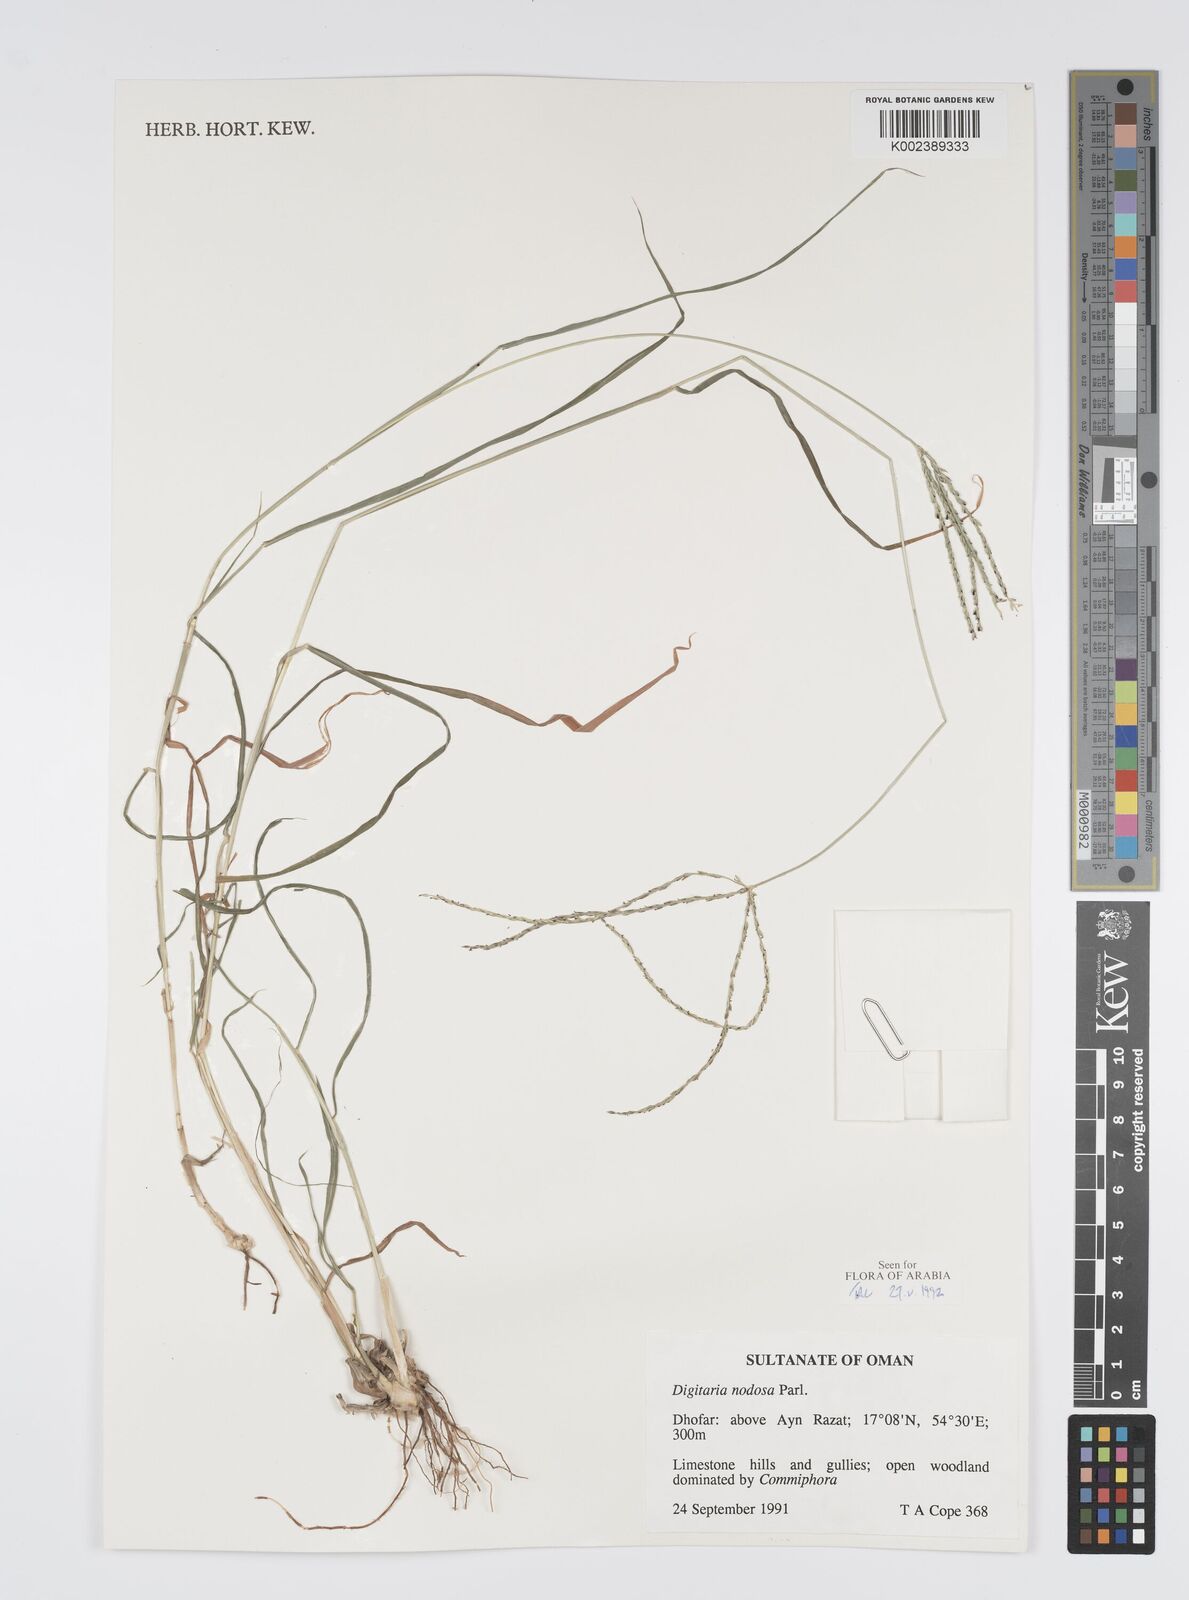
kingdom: Plantae
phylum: Tracheophyta
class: Liliopsida
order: Poales
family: Poaceae
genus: Digitaria
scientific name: Digitaria nodosa
